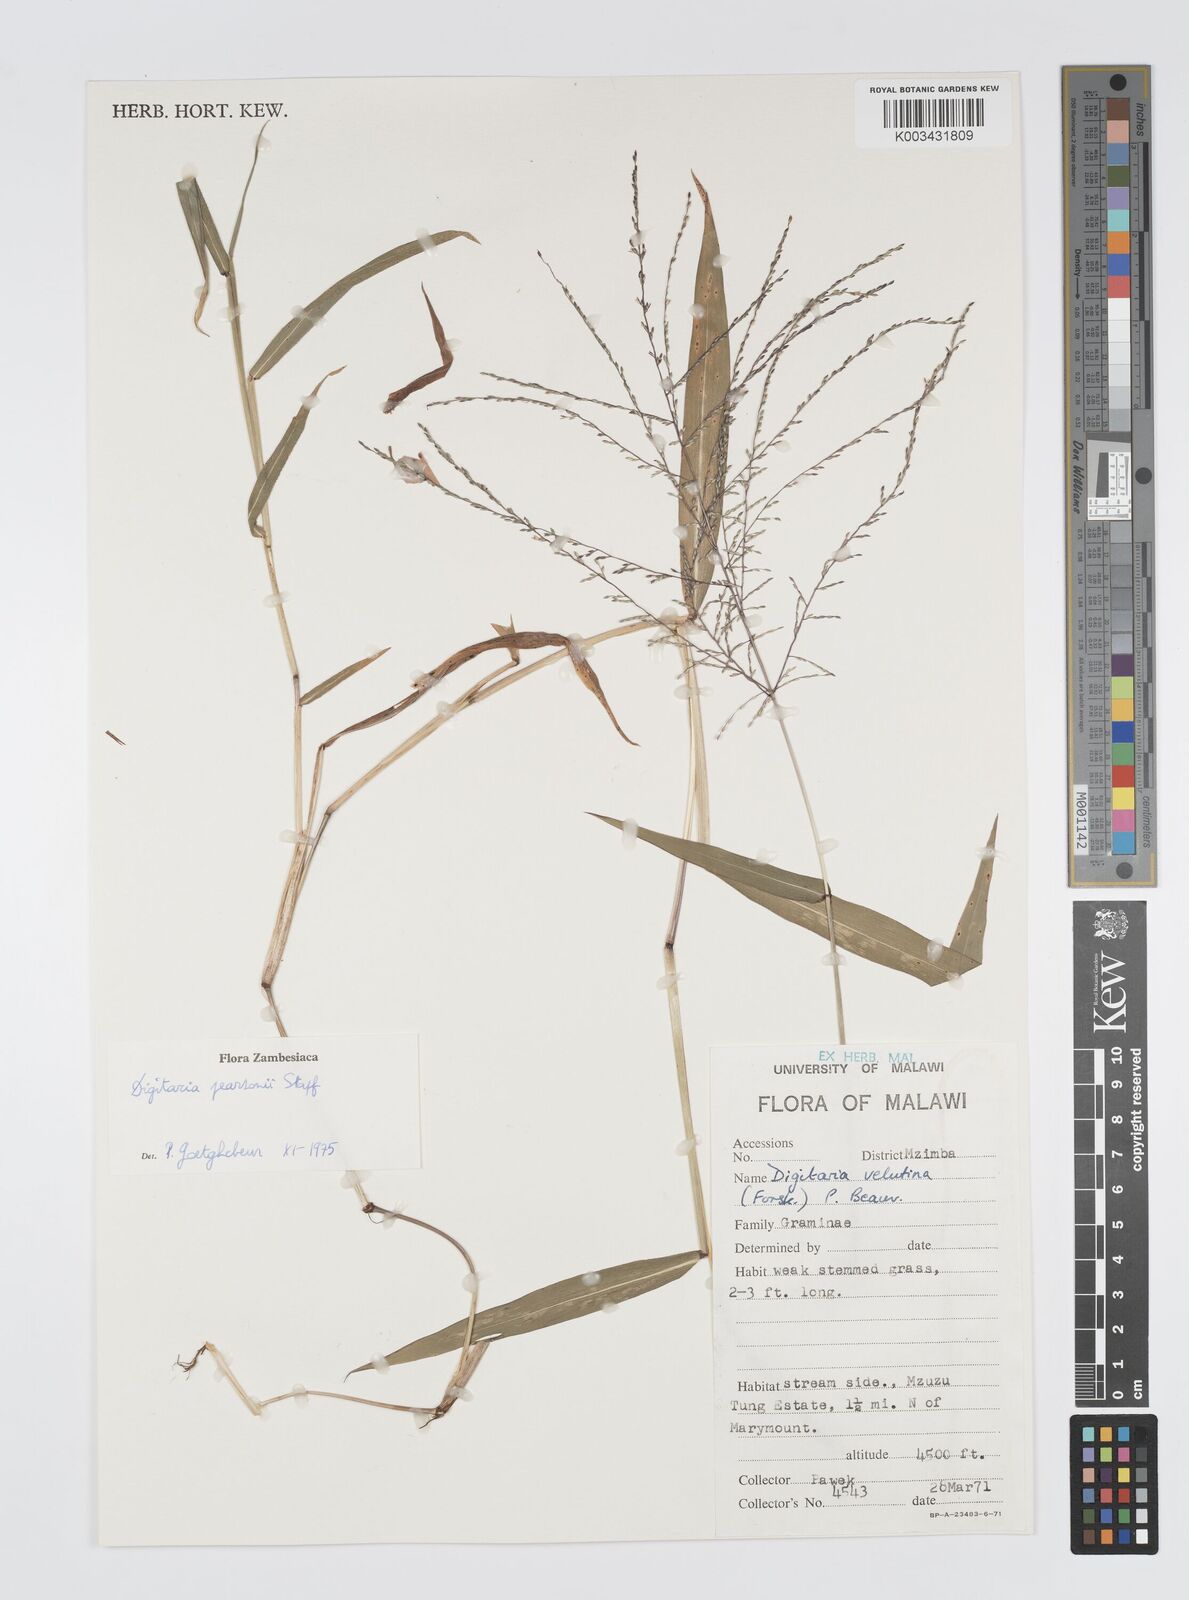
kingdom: Plantae
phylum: Tracheophyta
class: Liliopsida
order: Poales
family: Poaceae
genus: Digitaria
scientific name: Digitaria pearsonii
